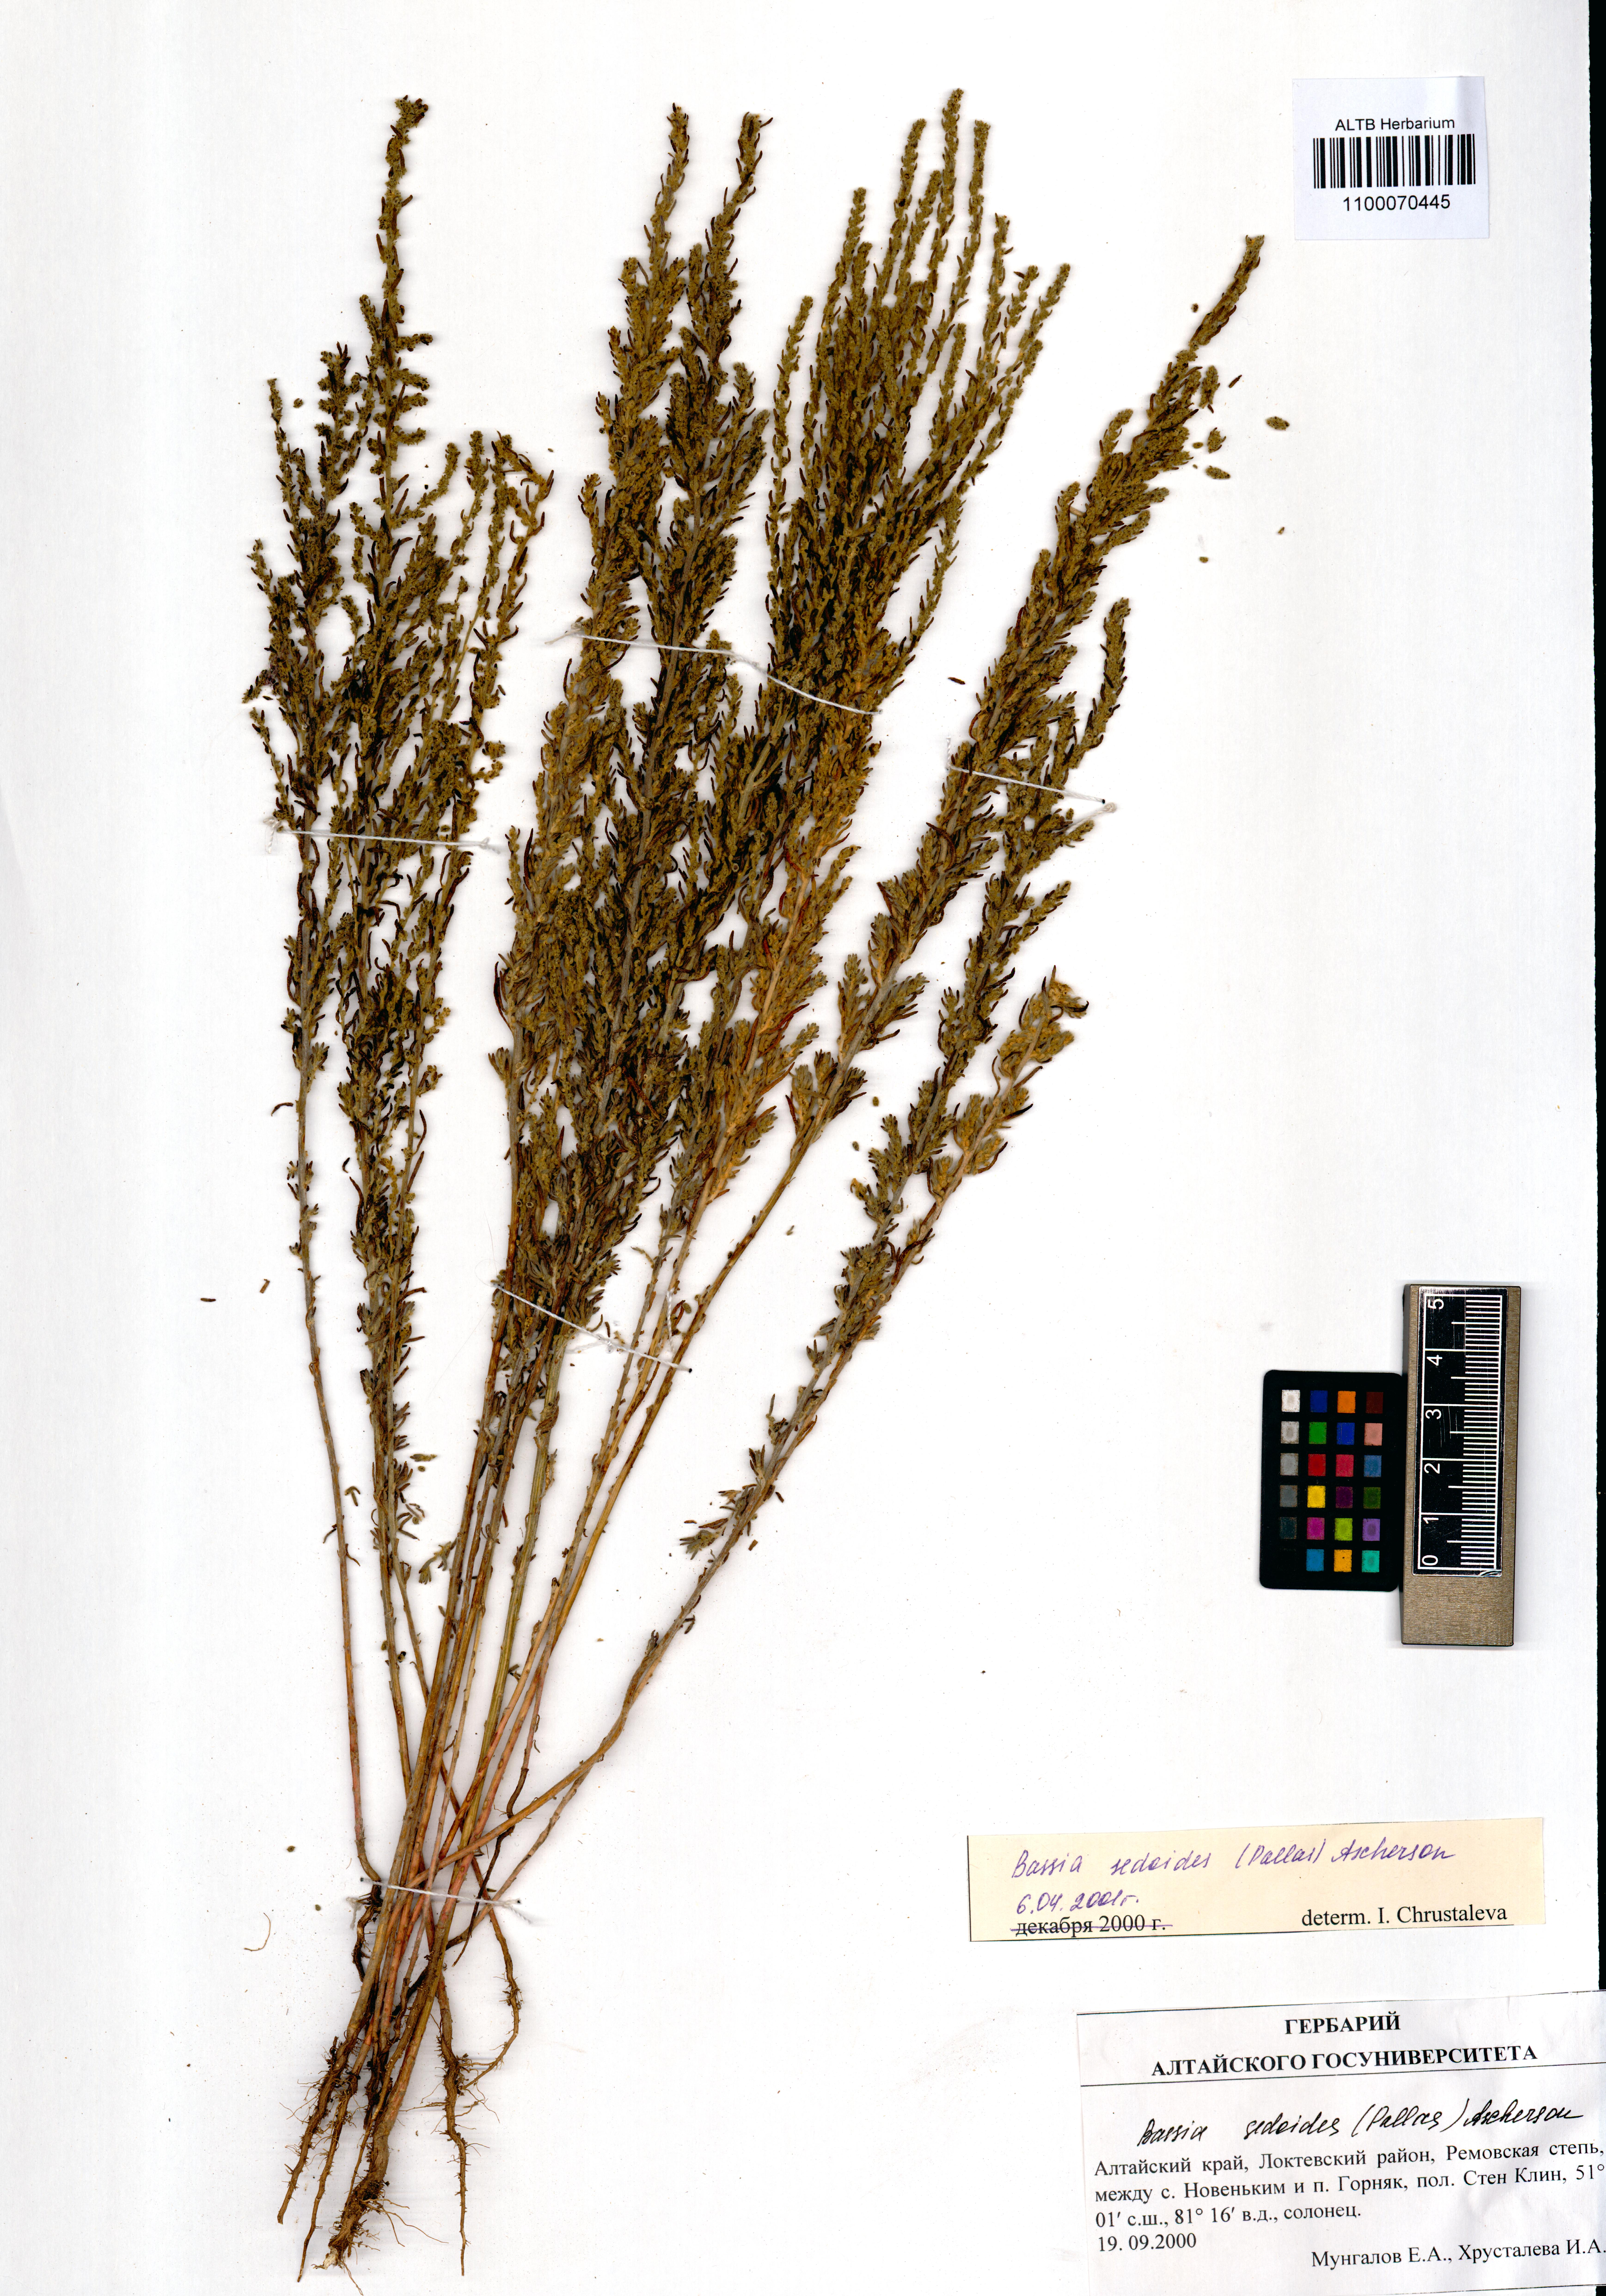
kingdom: Plantae
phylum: Tracheophyta
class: Magnoliopsida
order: Caryophyllales
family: Amaranthaceae
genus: Sedobassia
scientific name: Sedobassia sedoides
